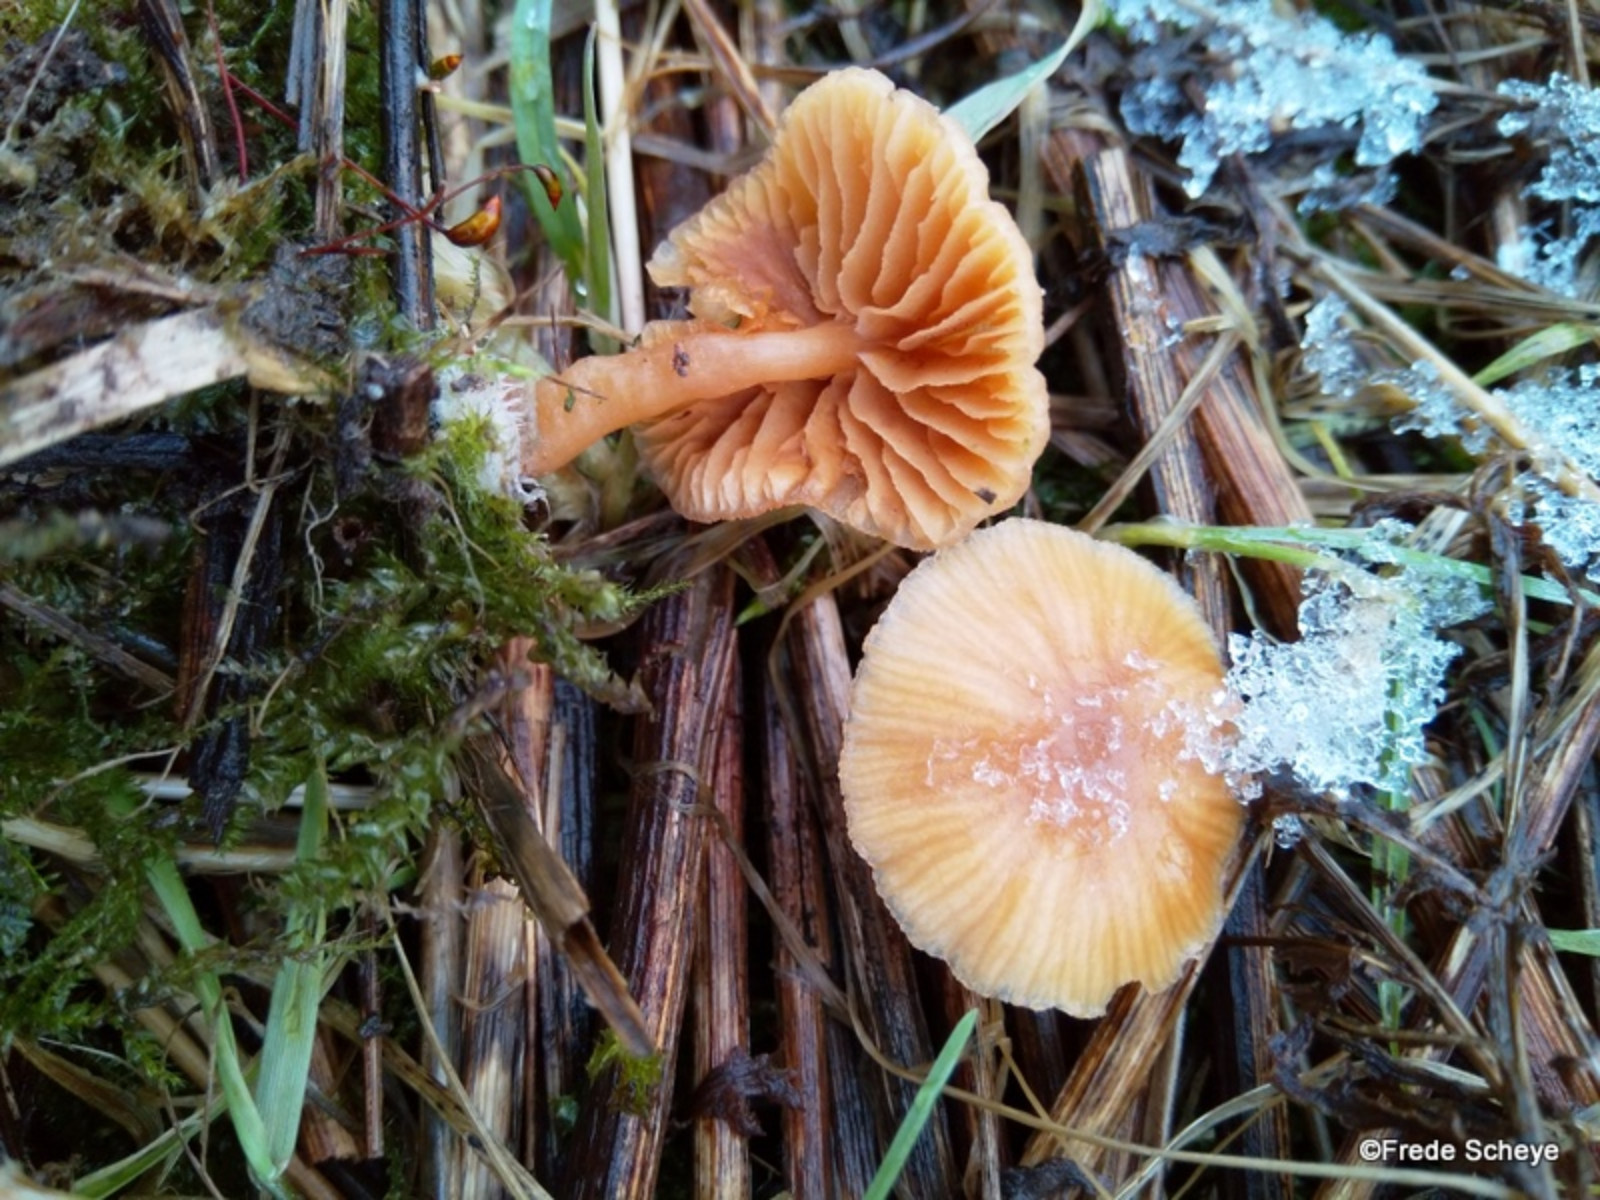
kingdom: Fungi
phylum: Basidiomycota
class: Agaricomycetes
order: Agaricales
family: Tubariaceae
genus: Tubaria
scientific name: Tubaria furfuracea
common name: kliddet fnughat
